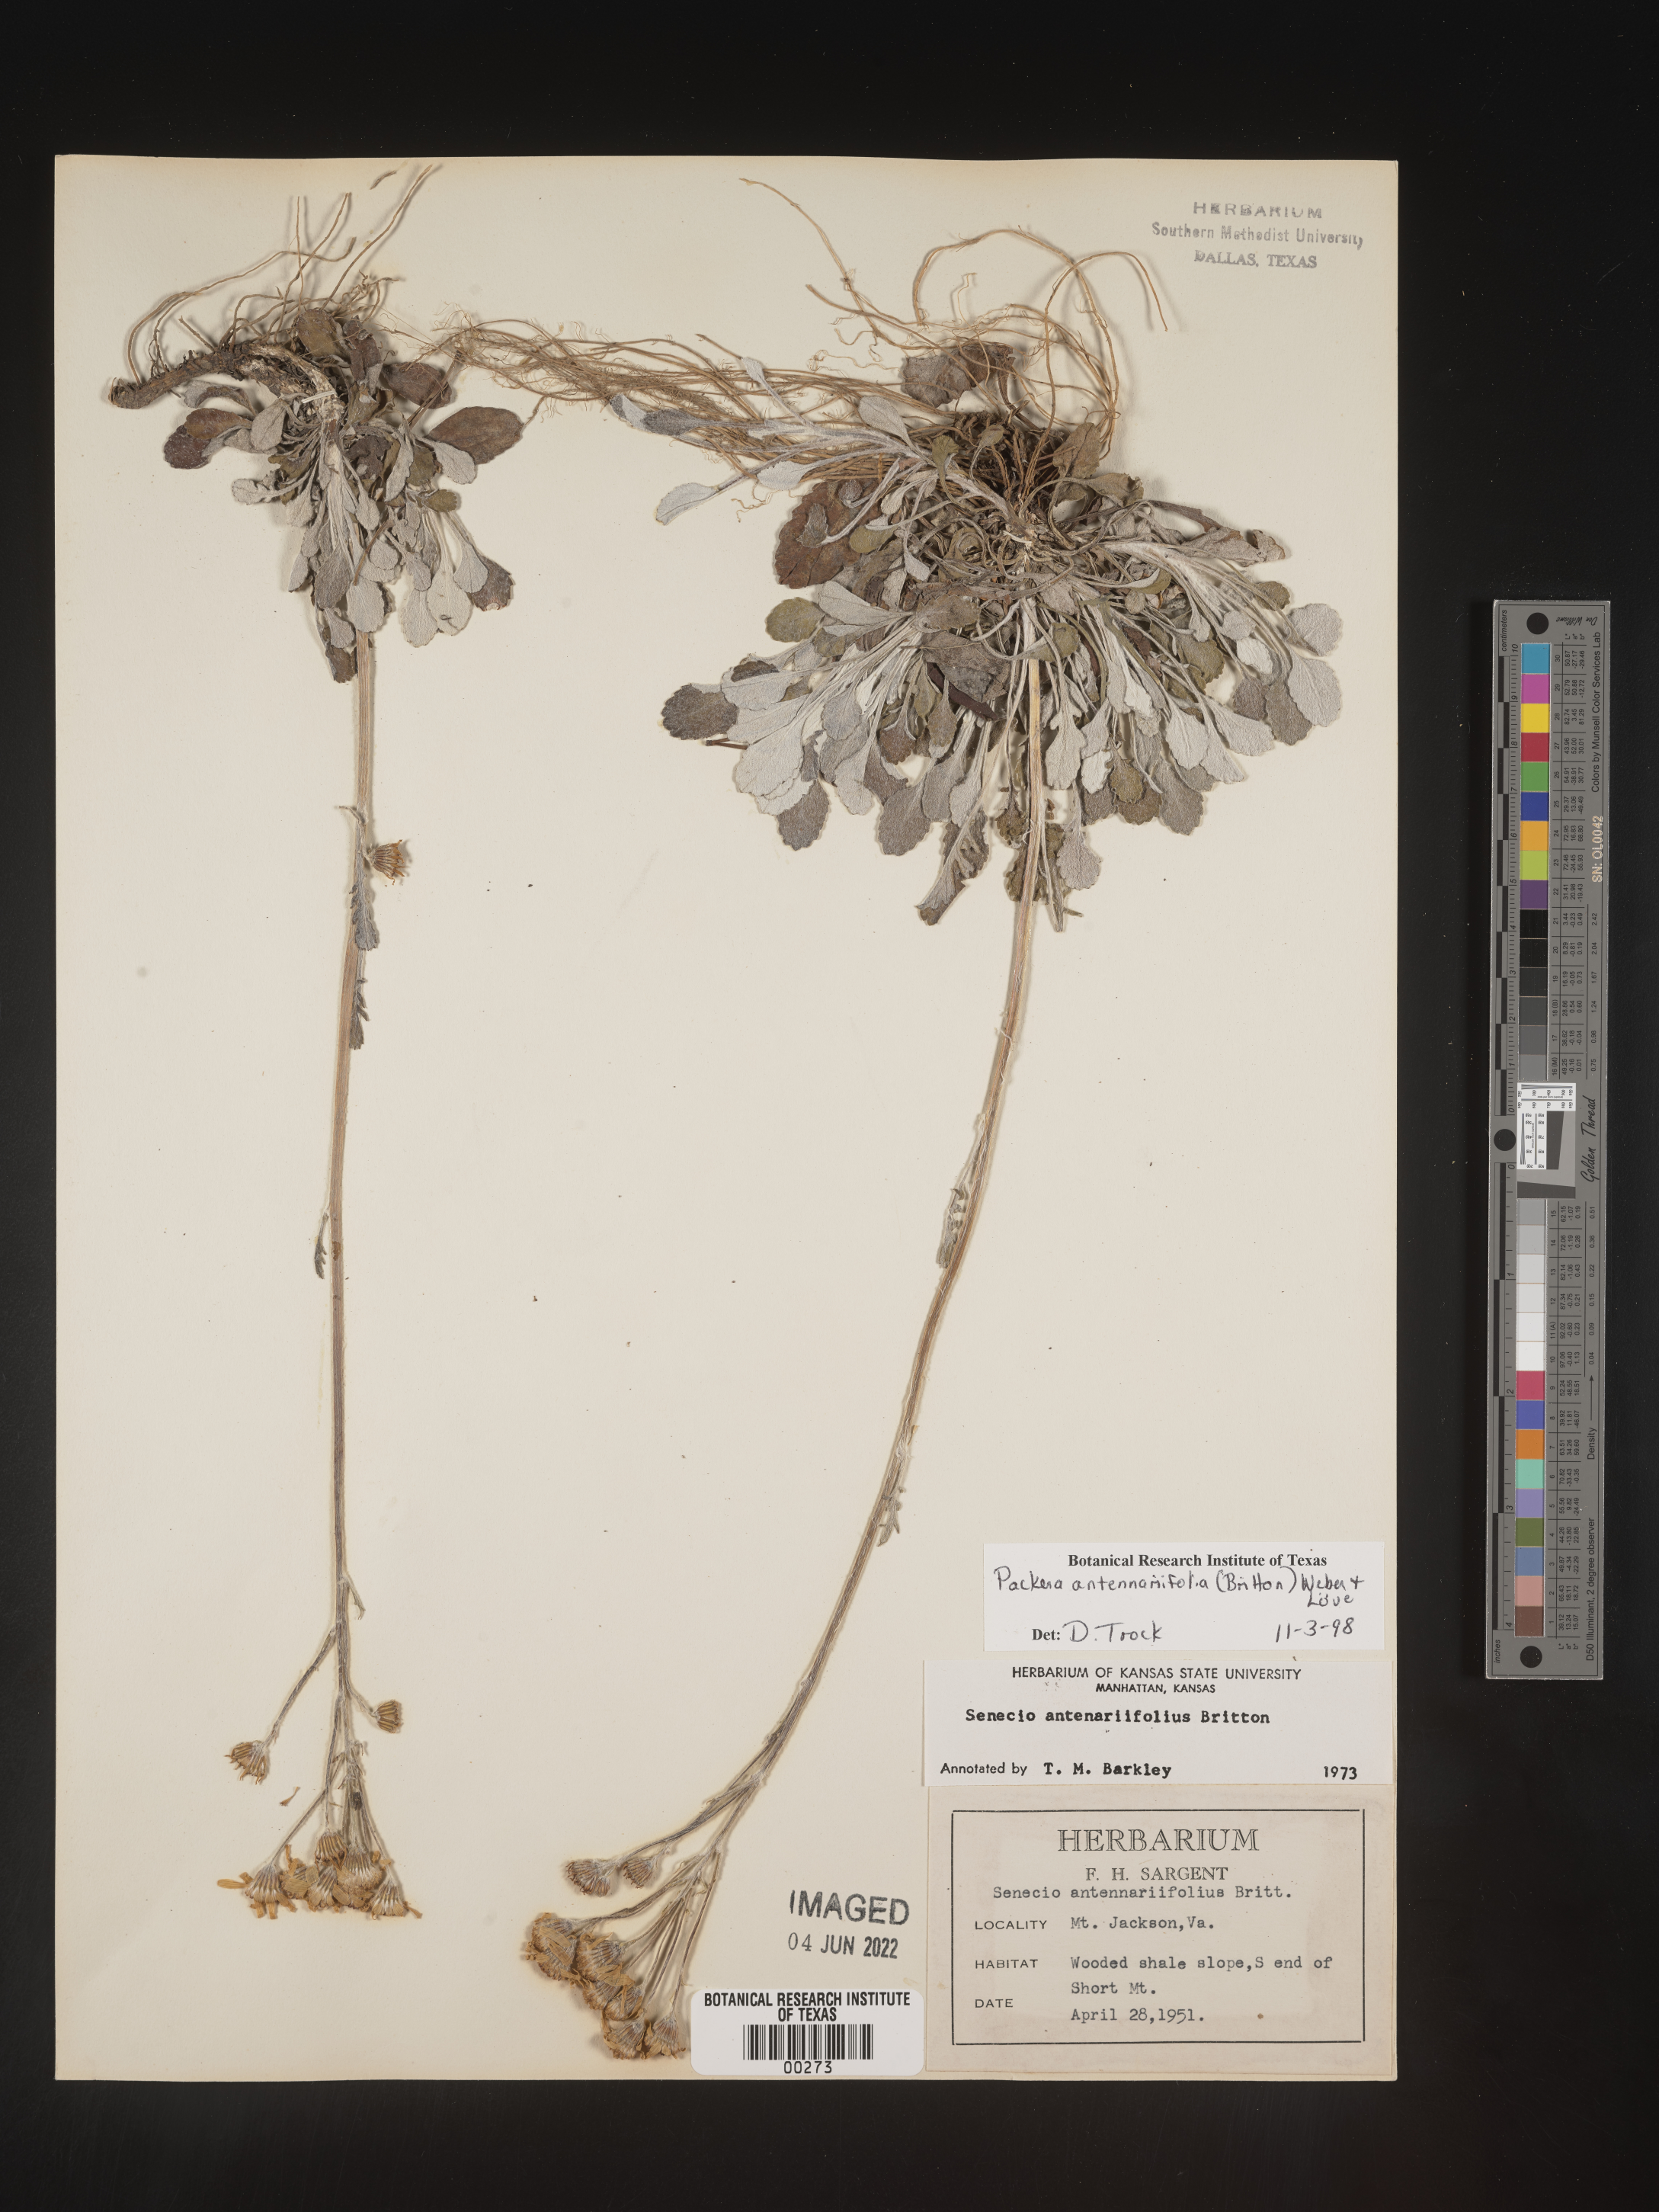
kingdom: Plantae
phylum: Tracheophyta
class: Magnoliopsida
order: Asterales
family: Asteraceae
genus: Packera
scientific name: Packera antennariifolia
